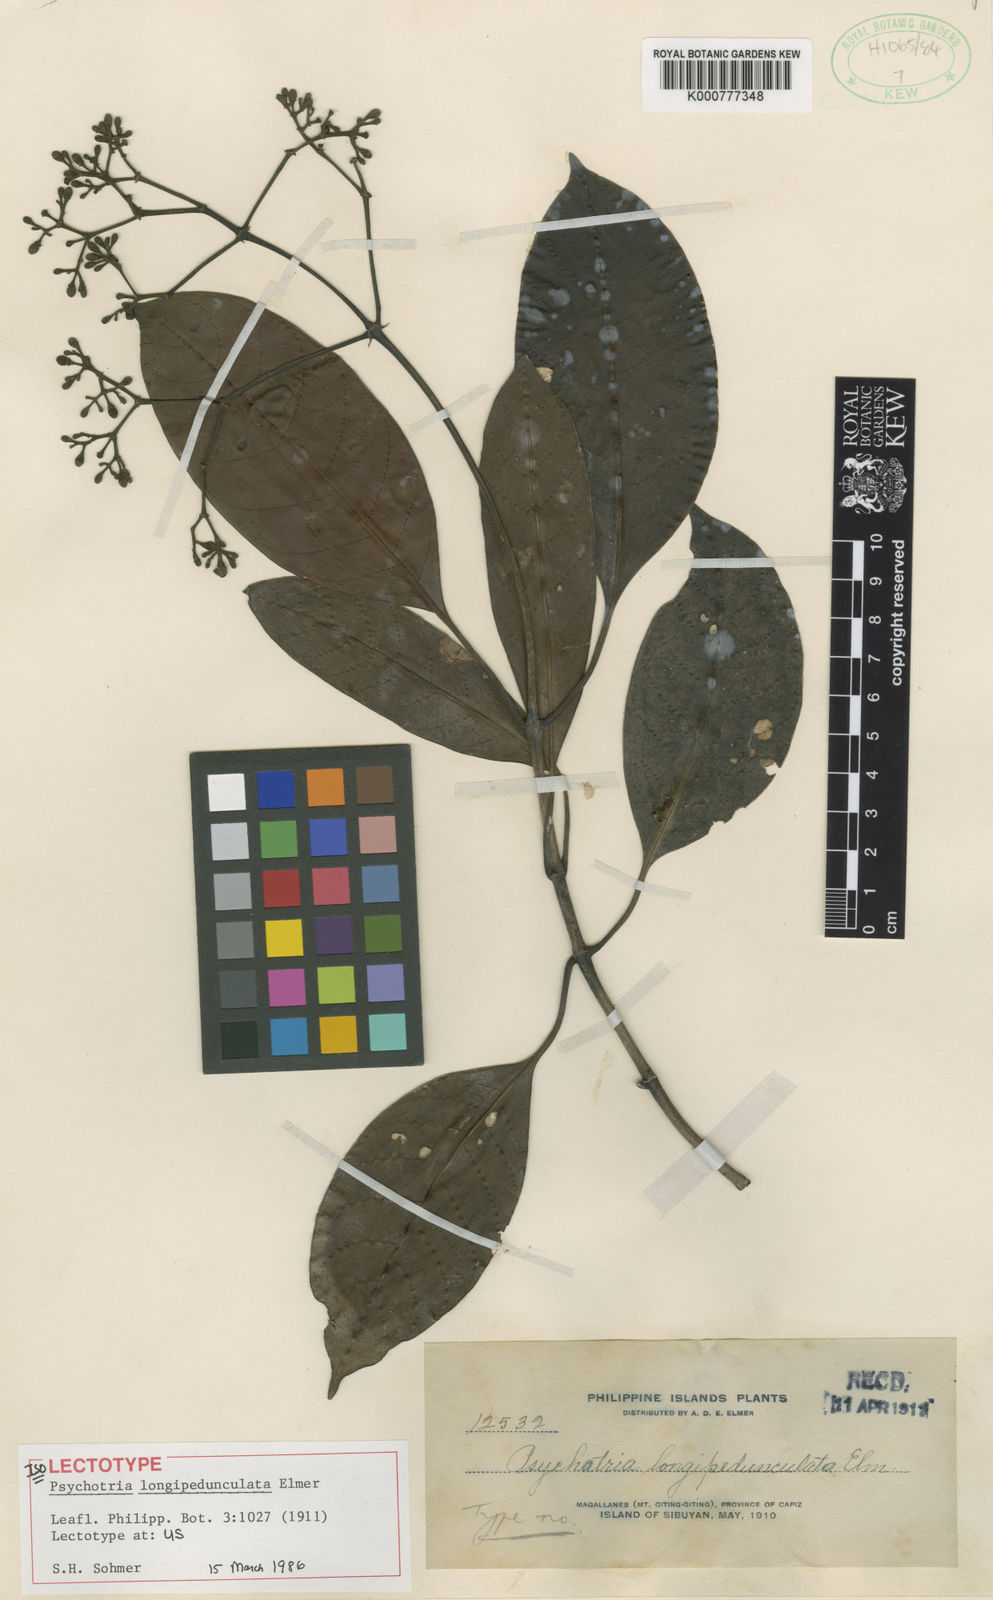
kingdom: Plantae
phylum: Tracheophyta
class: Magnoliopsida
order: Gentianales
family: Rubiaceae
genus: Psychotria
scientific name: Psychotria barkleyi
